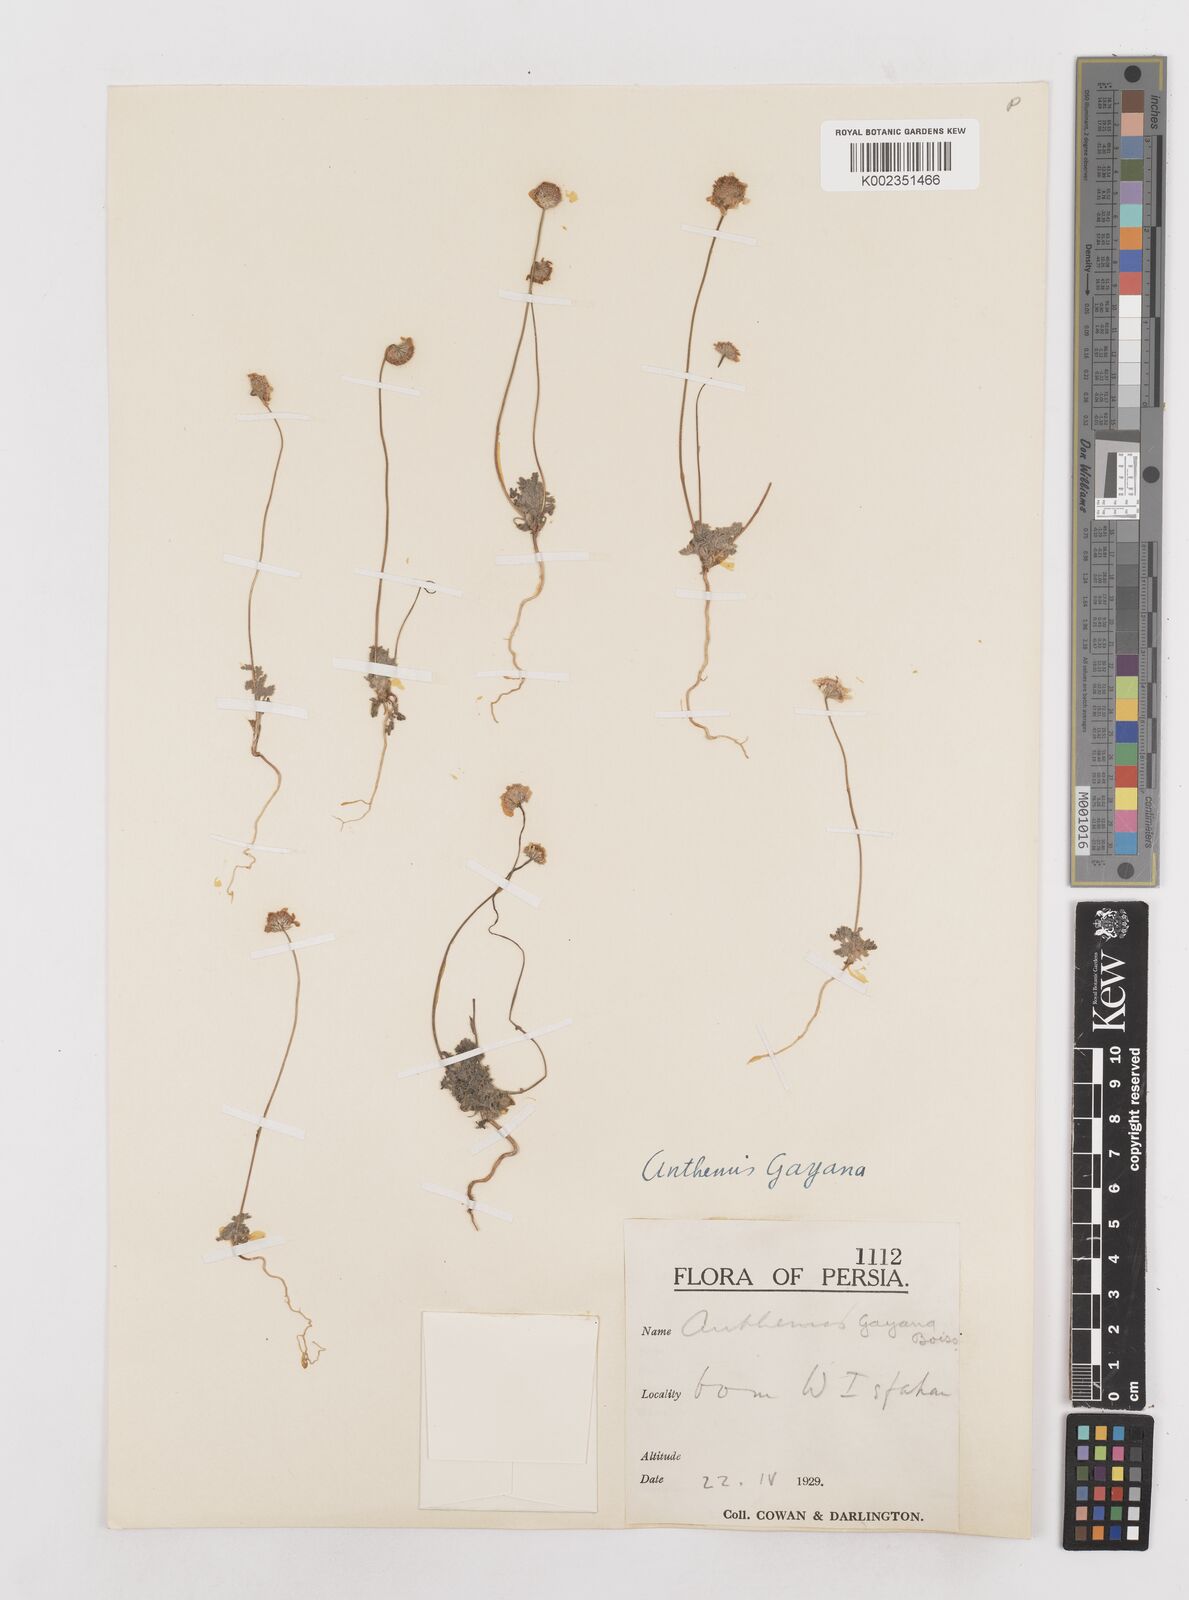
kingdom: Plantae
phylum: Tracheophyta
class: Magnoliopsida
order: Asterales
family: Asteraceae
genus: Anthemis
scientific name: Anthemis gayana
